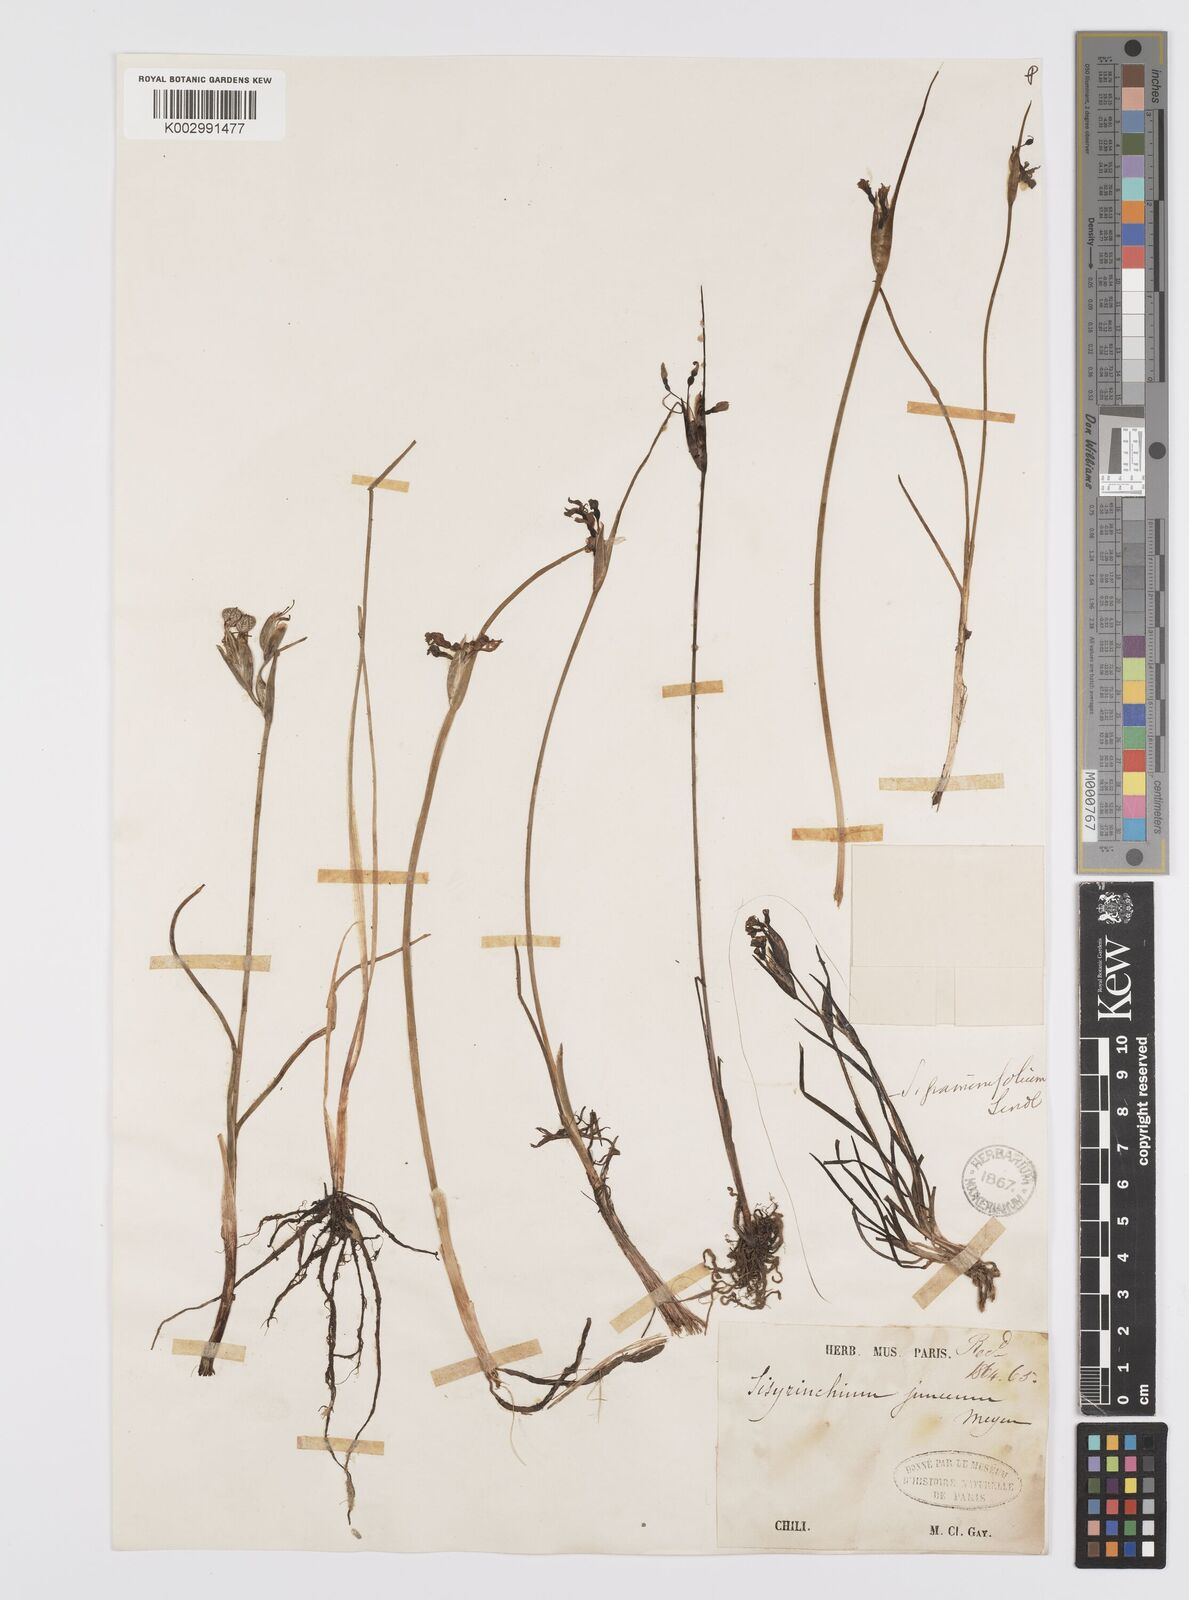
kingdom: Plantae
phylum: Tracheophyta
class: Liliopsida
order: Asparagales
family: Iridaceae
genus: Olsynium
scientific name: Olsynium junceum
